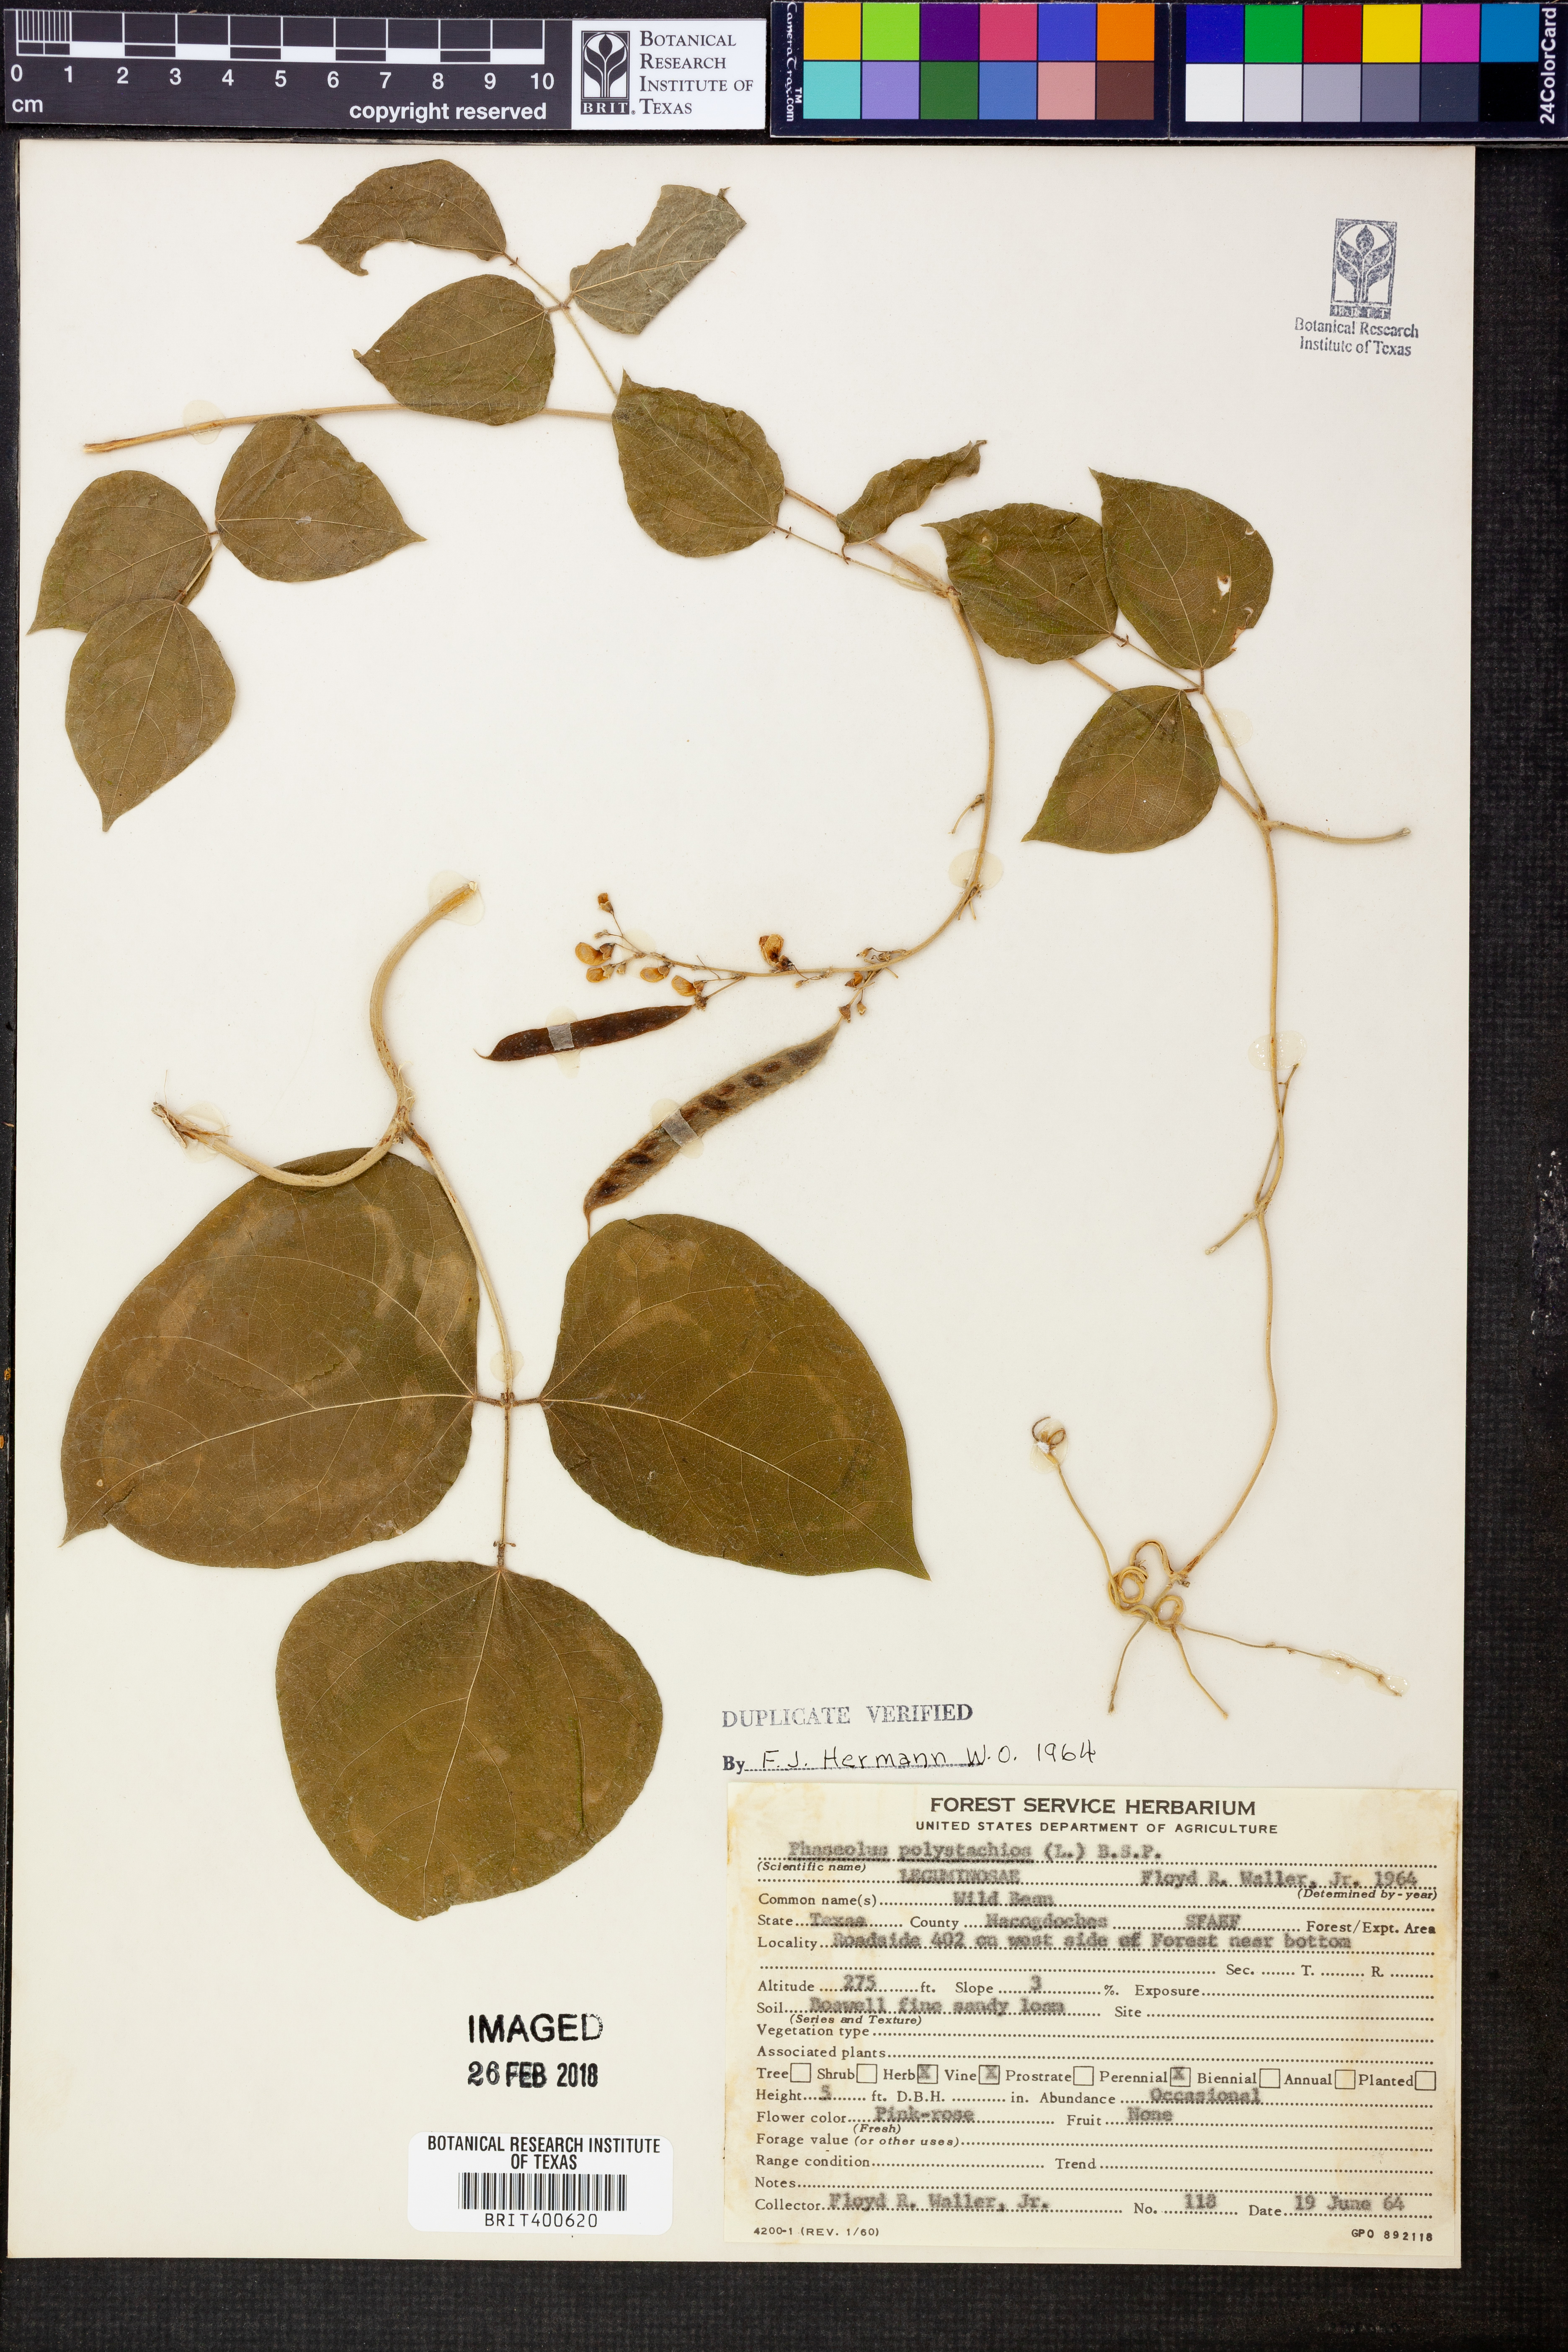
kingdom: Plantae
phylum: Tracheophyta
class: Magnoliopsida
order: Fabales
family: Fabaceae
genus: Phaseolus
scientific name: Phaseolus polystachios
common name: Thicket bean
